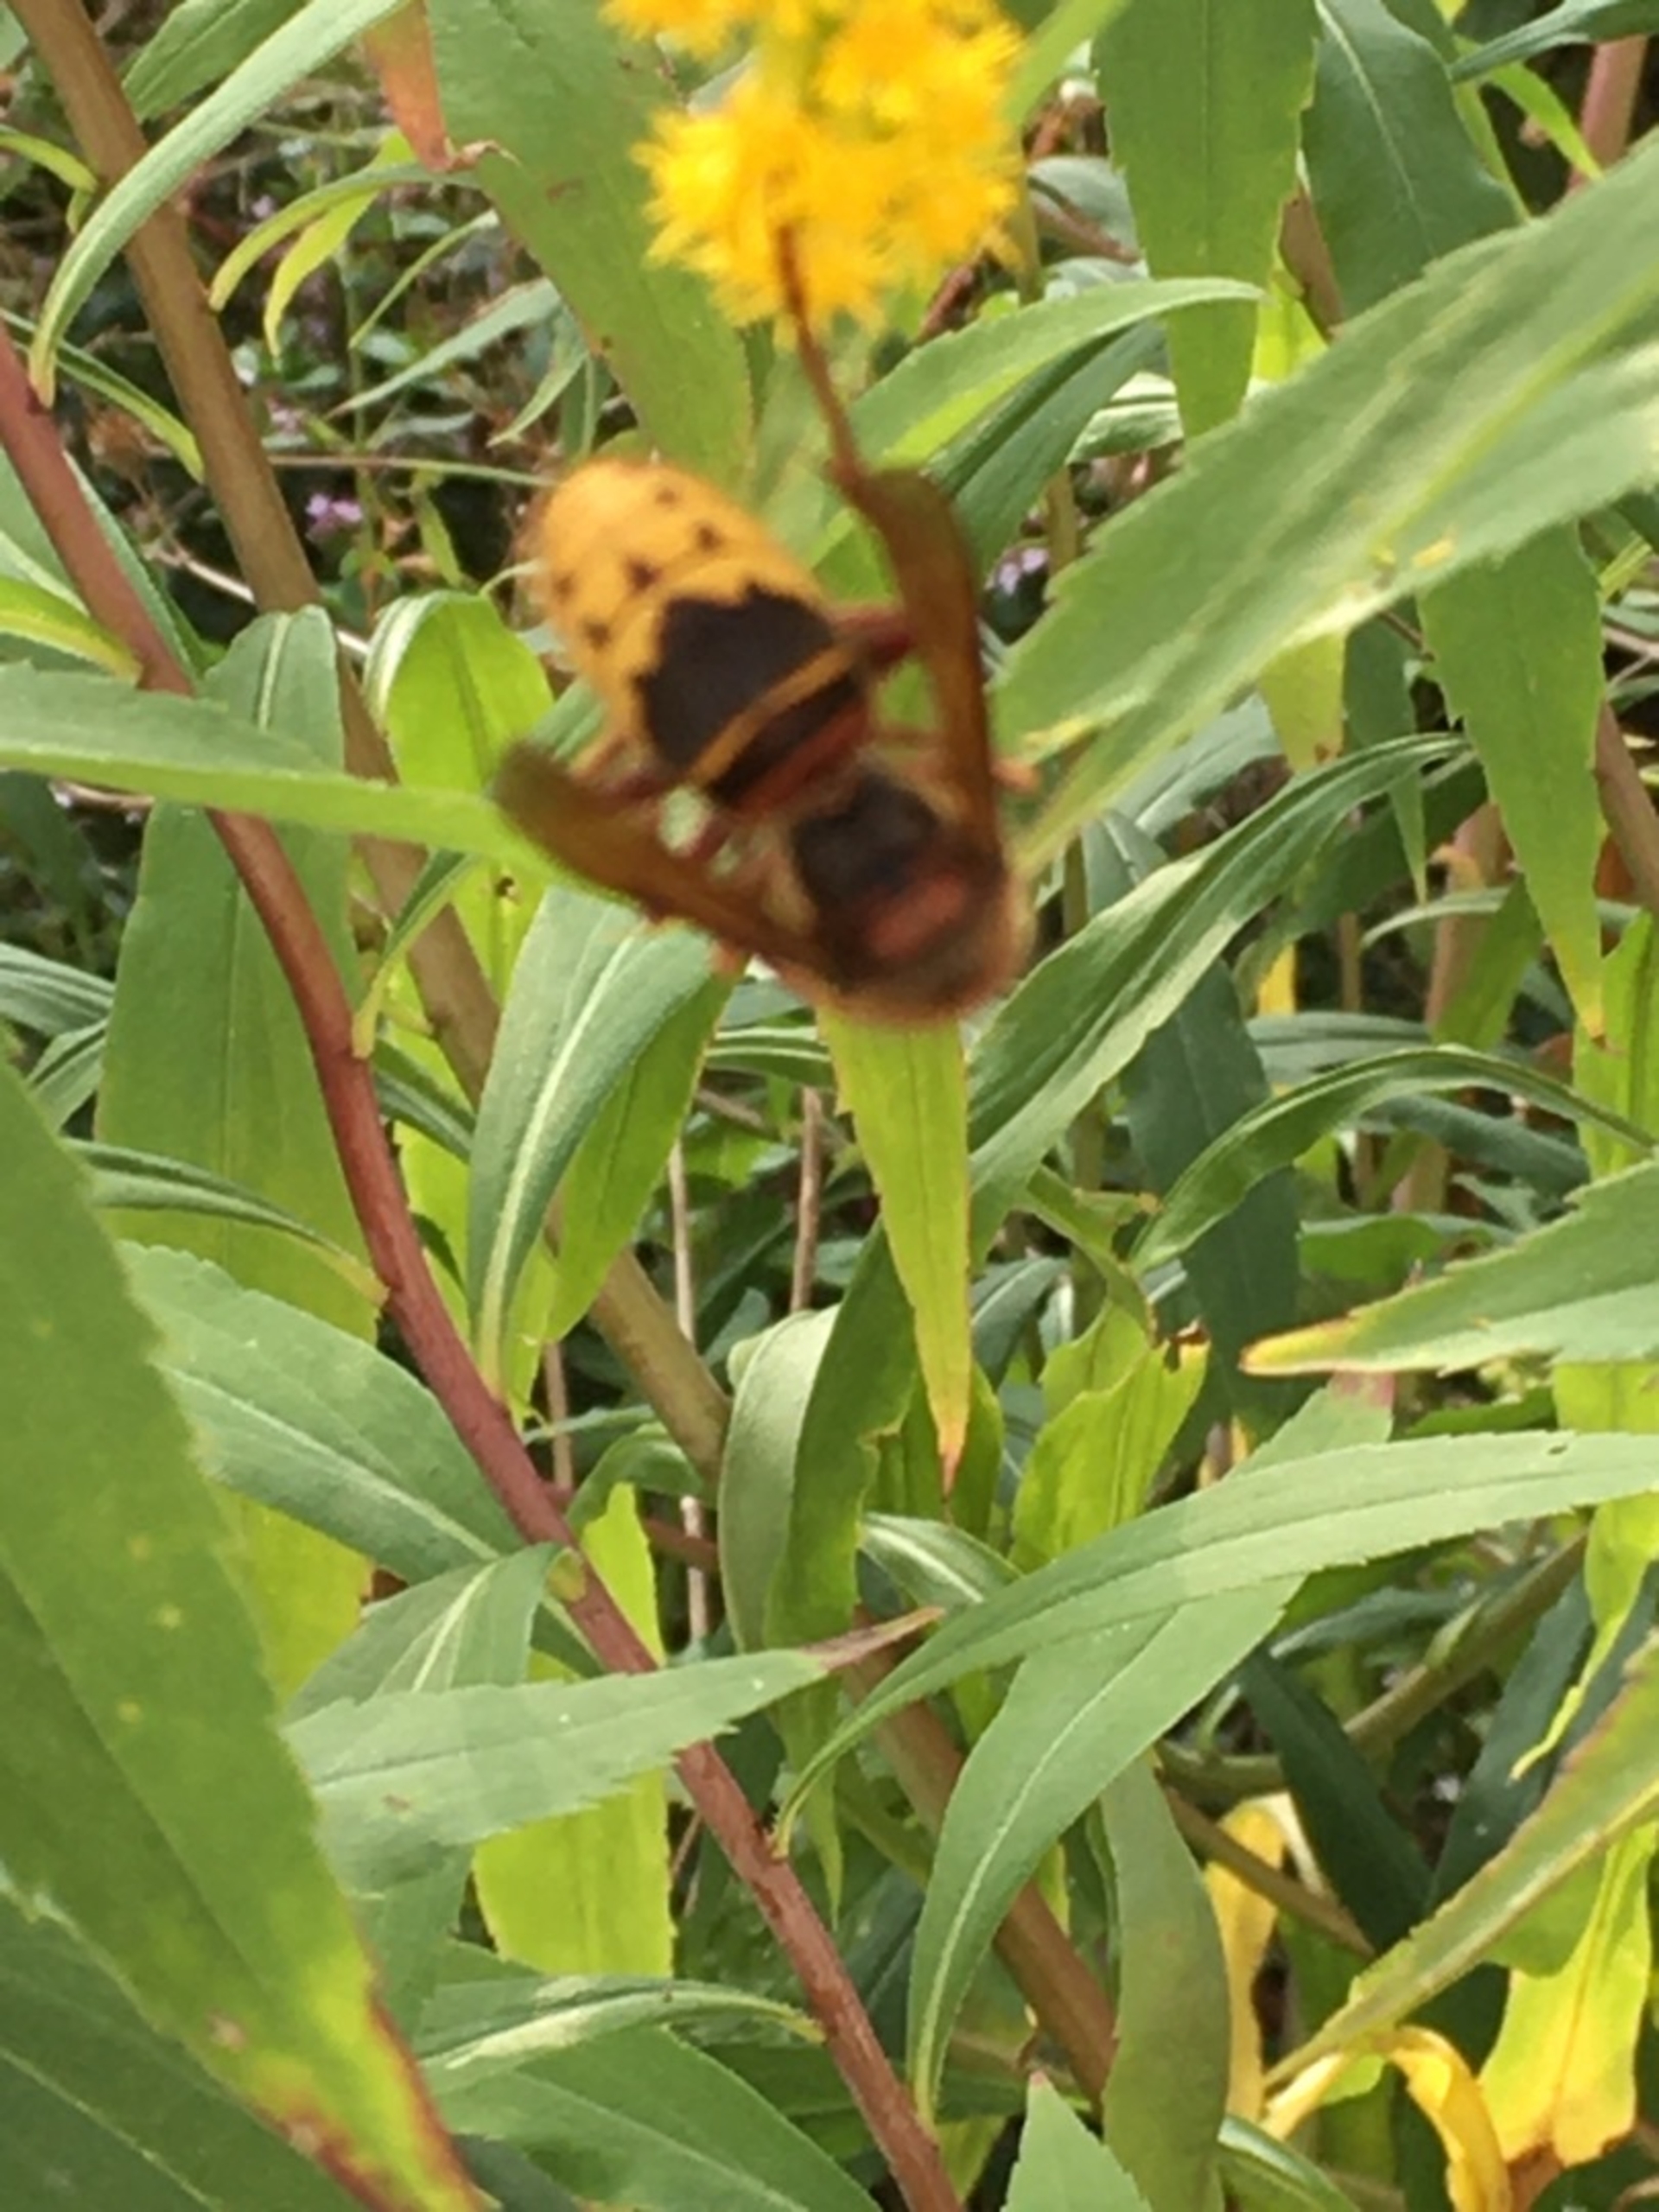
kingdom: Animalia
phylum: Arthropoda
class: Insecta
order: Hymenoptera
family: Vespidae
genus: Vespa
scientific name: Vespa crabro
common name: Stor gedehams
